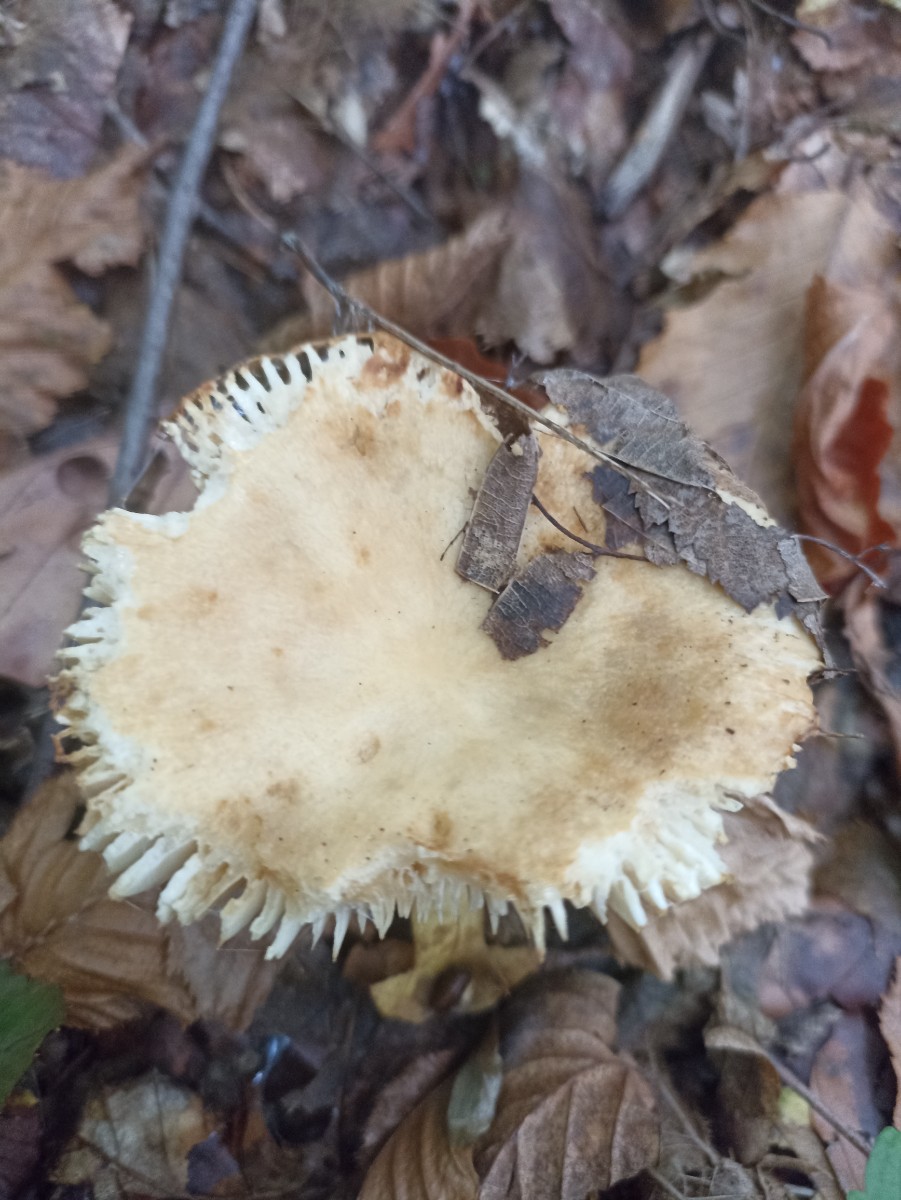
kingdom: Plantae
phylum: Bryophyta
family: Agaricomycetidae
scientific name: Agaricomycetidae
